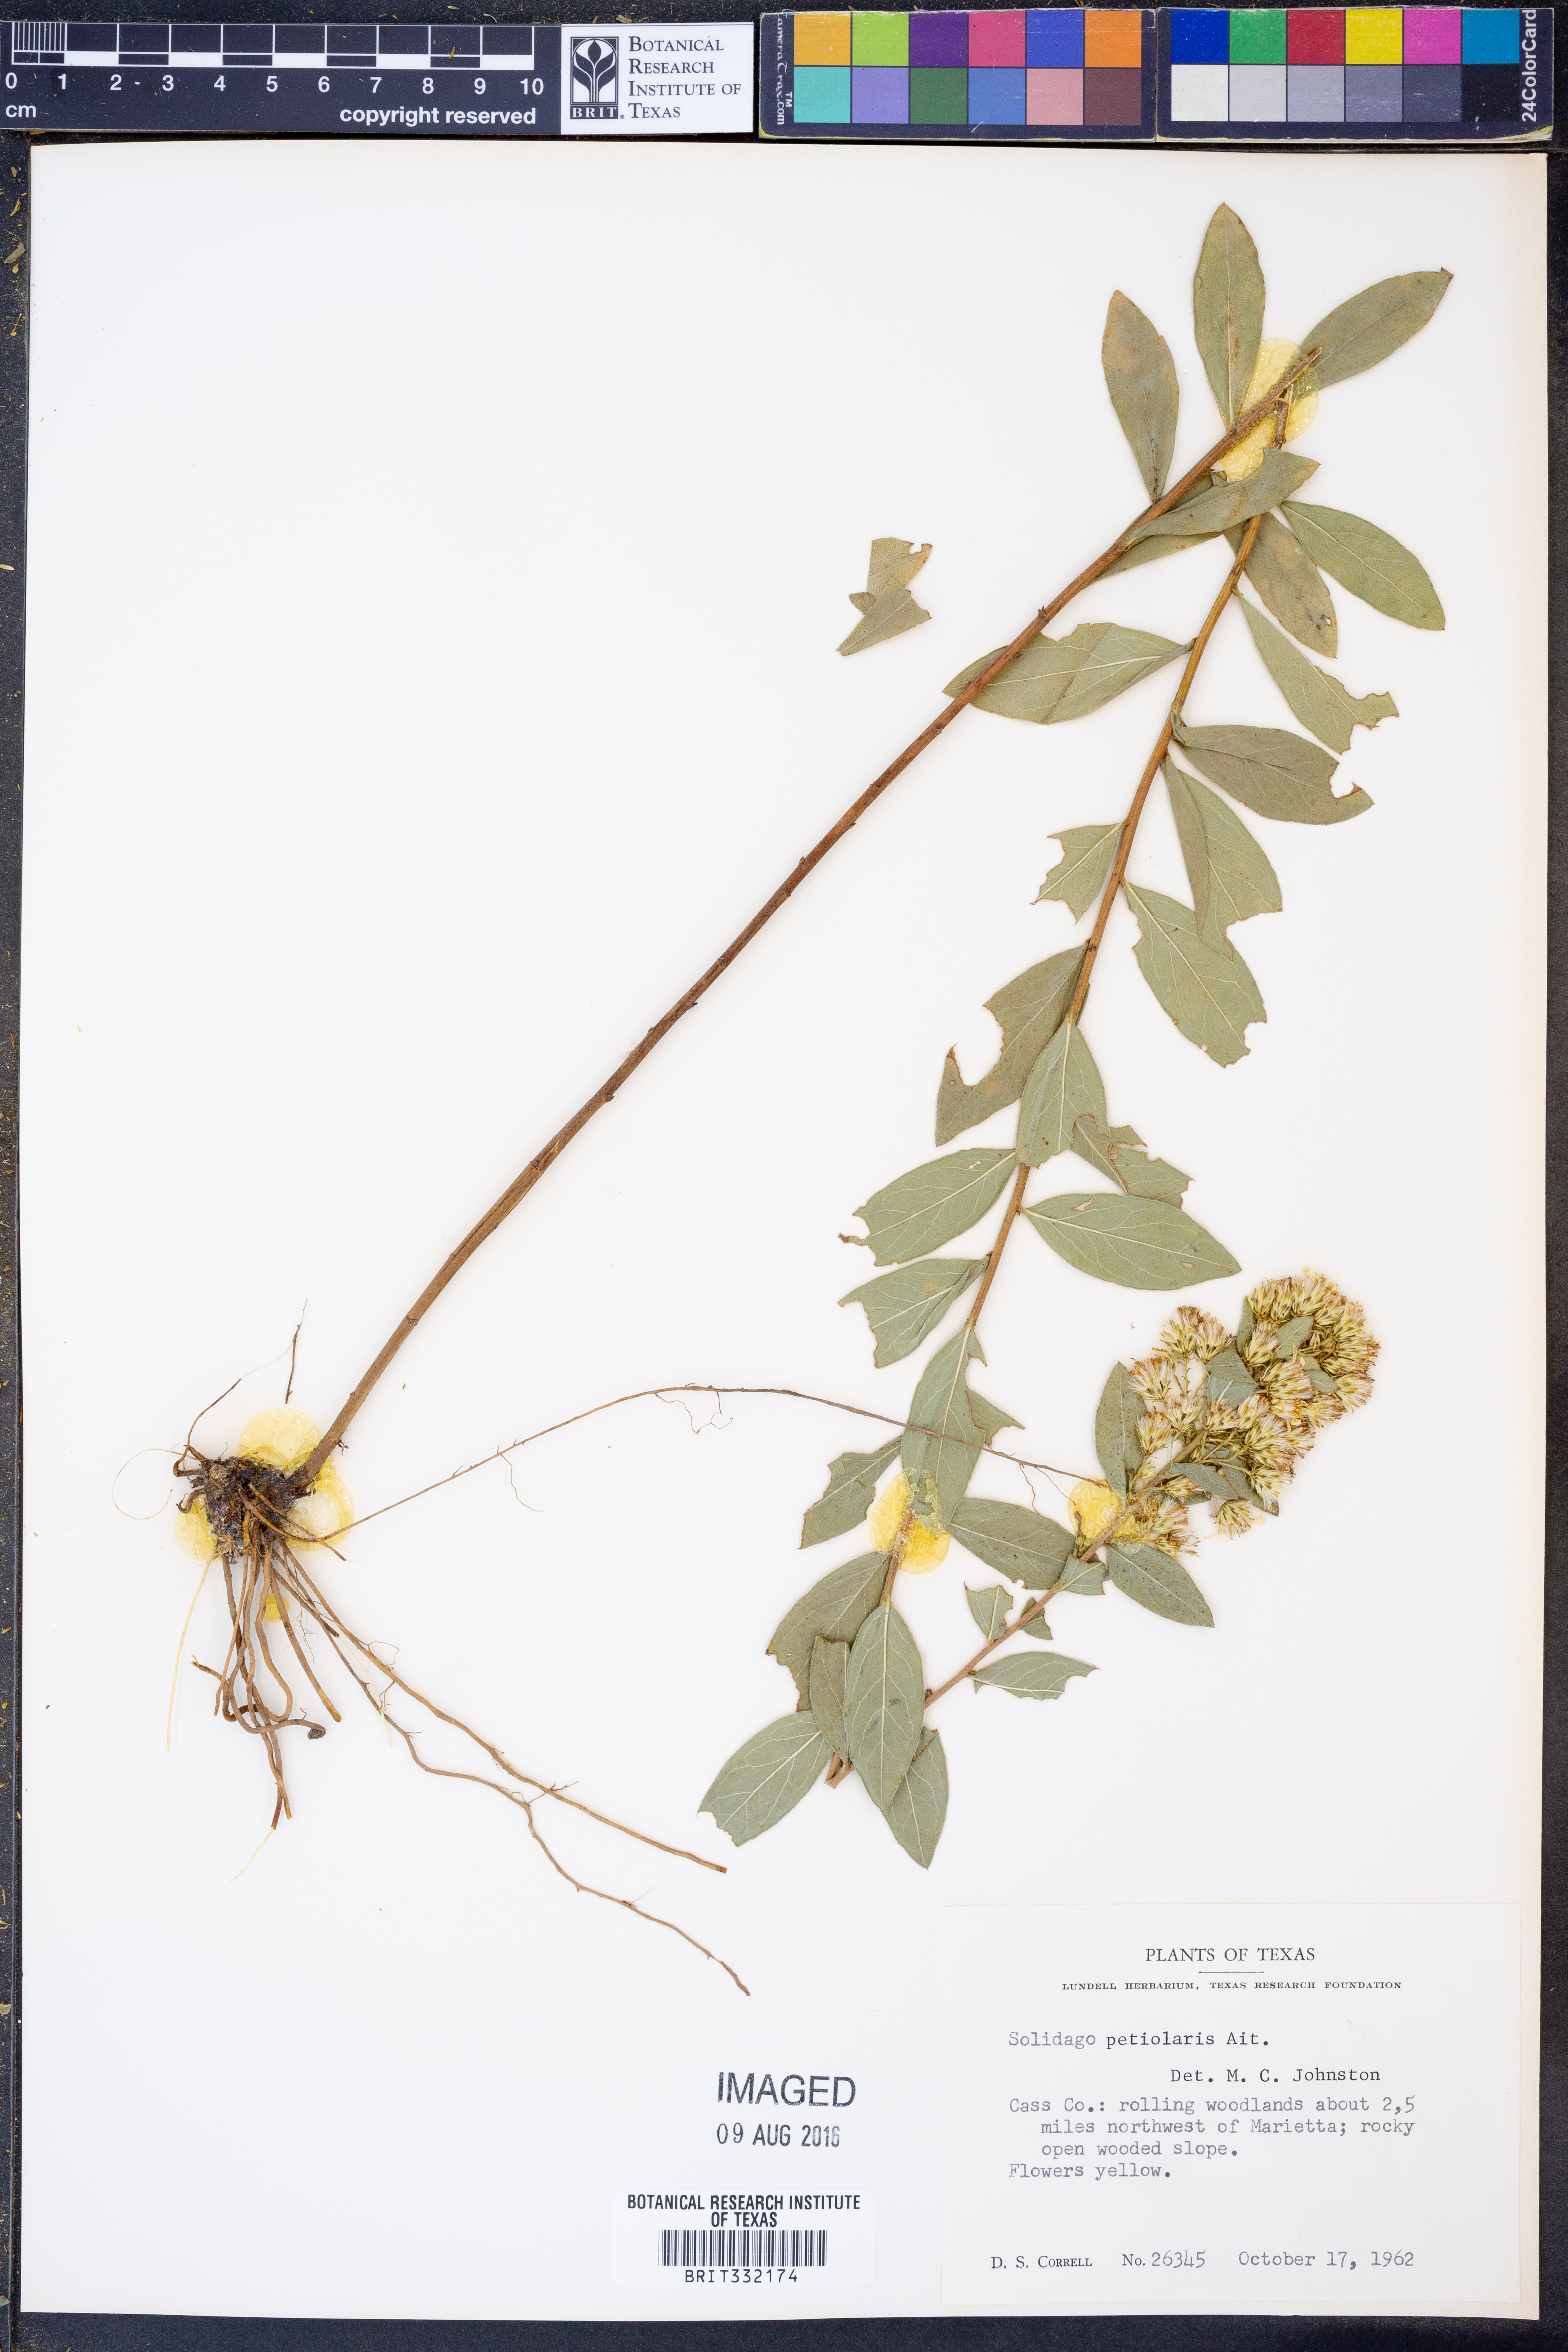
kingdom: Plantae
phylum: Tracheophyta
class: Magnoliopsida
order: Asterales
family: Asteraceae
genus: Solidago
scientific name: Solidago petiolaris
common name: Downy ragged goldenrod
